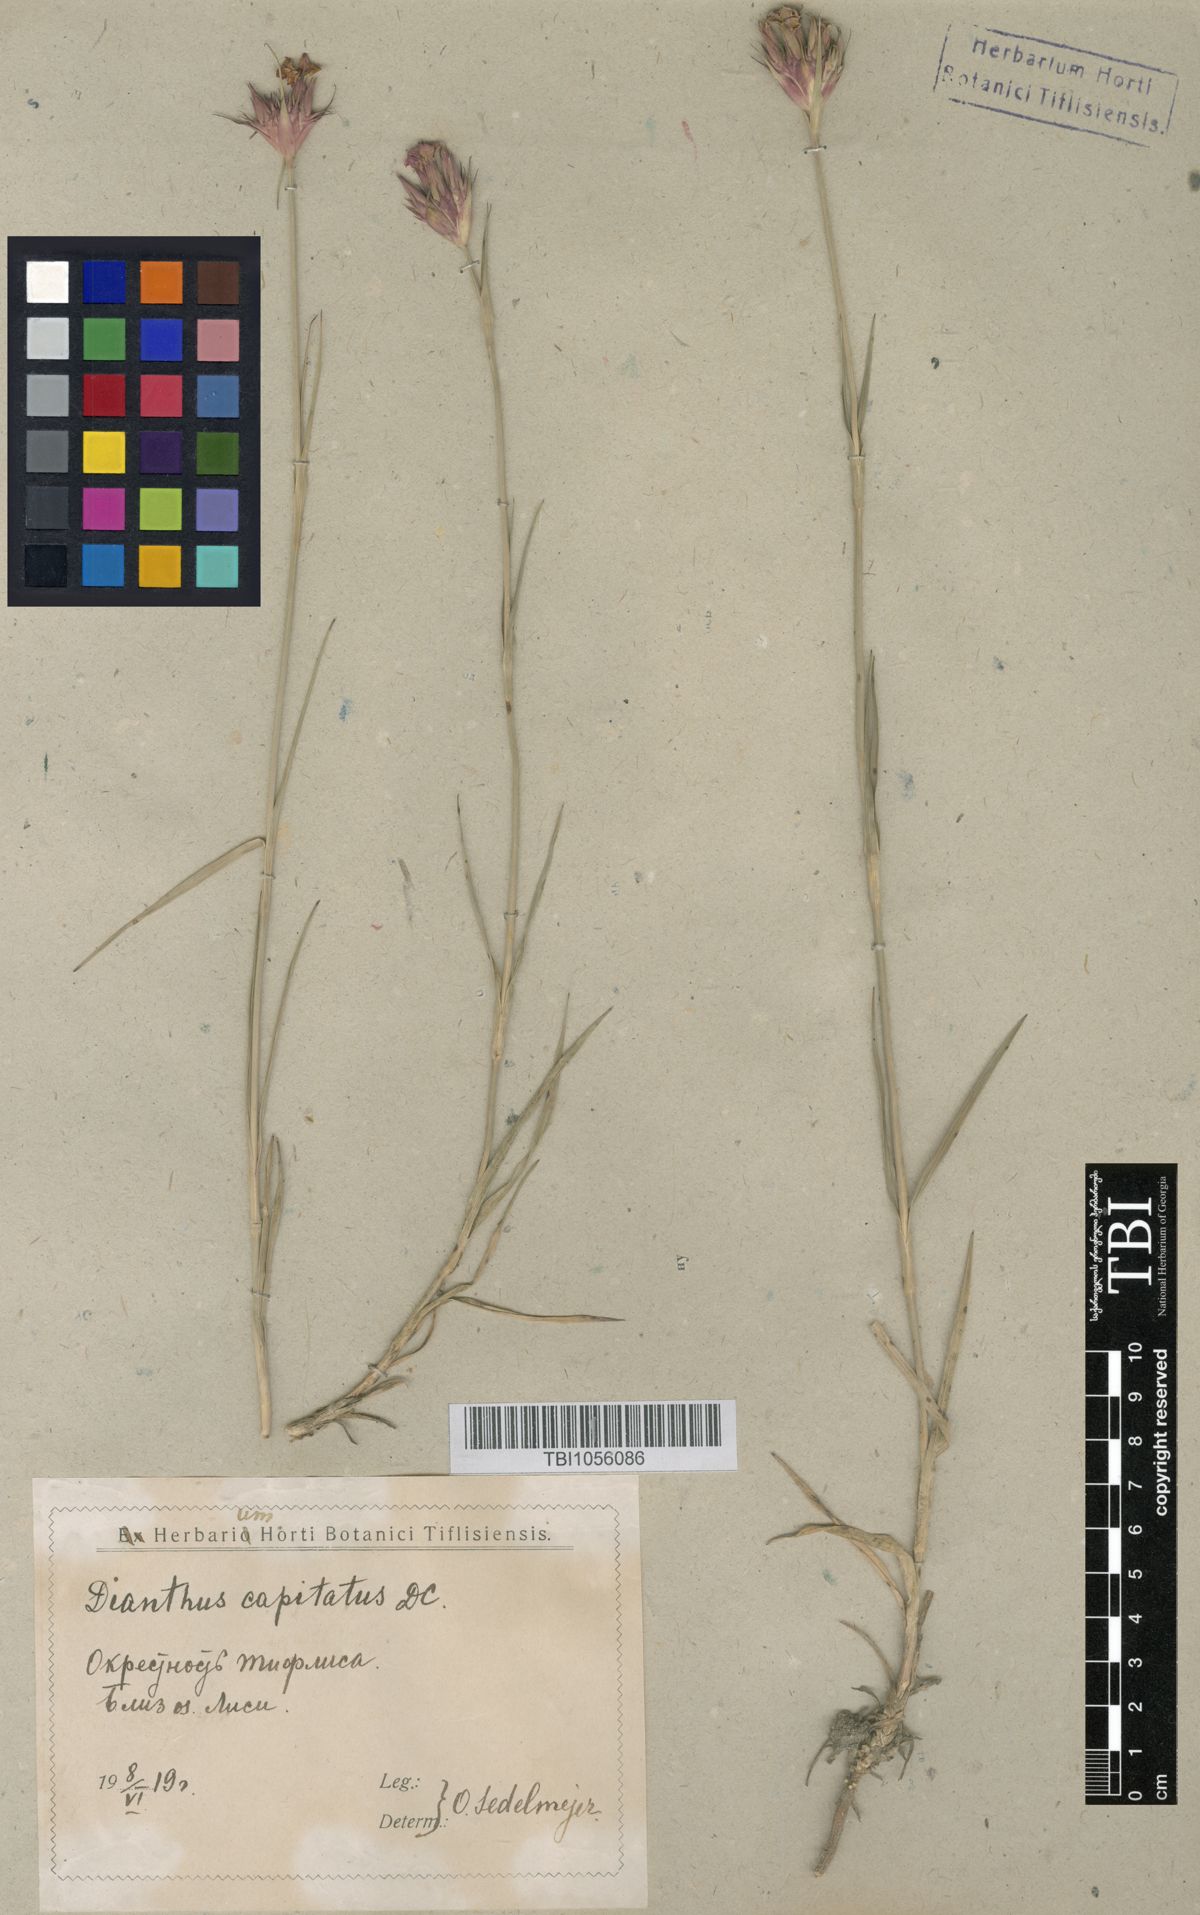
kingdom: Plantae
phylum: Tracheophyta
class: Magnoliopsida
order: Caryophyllales
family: Caryophyllaceae
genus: Dianthus
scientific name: Dianthus subulosus
